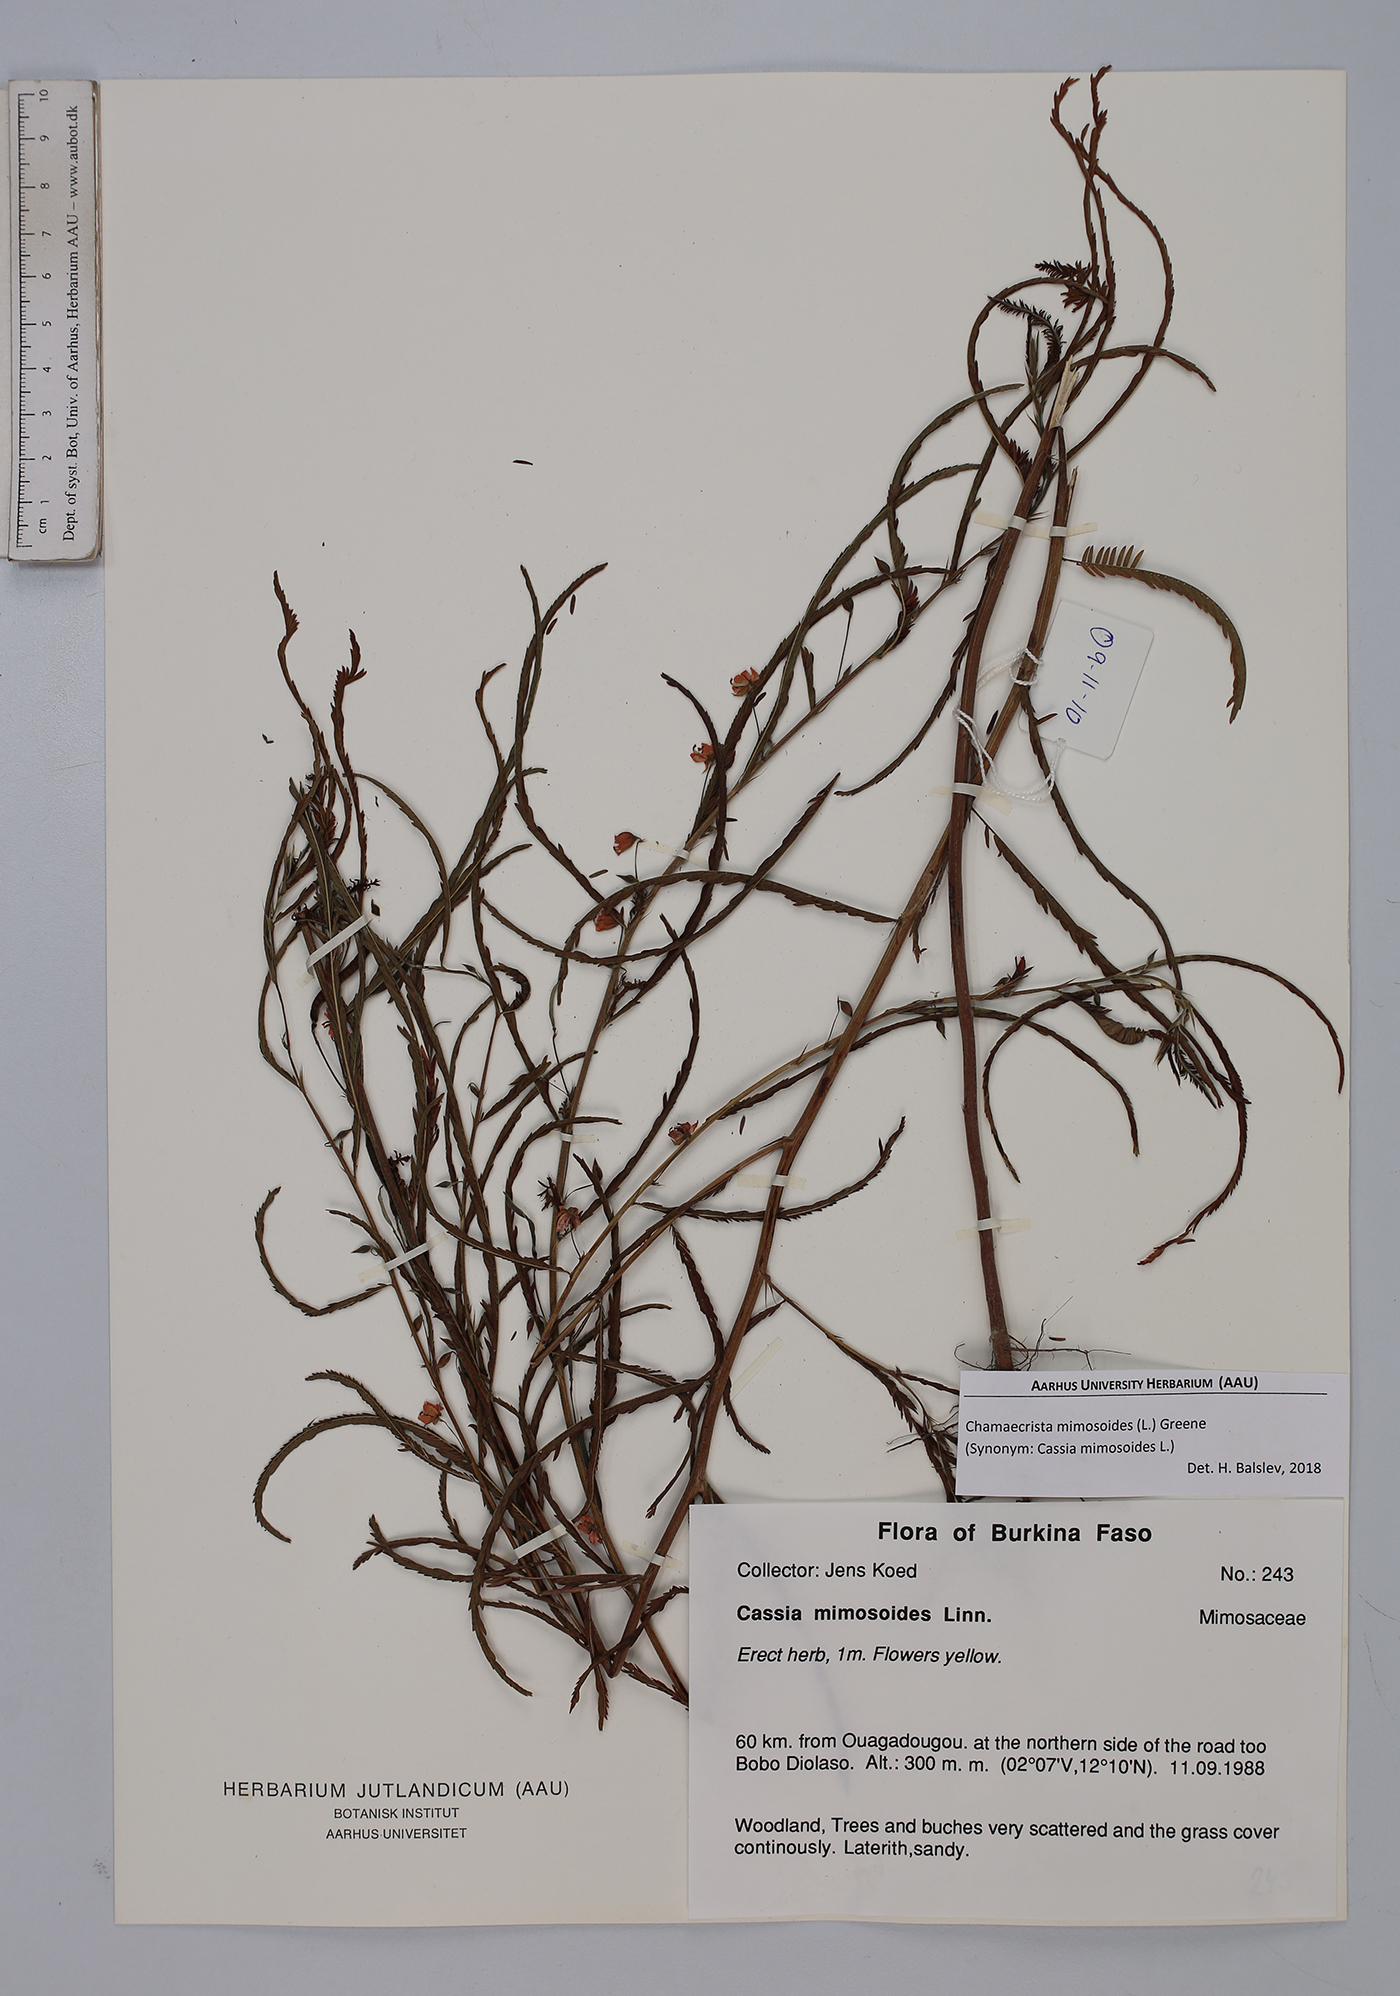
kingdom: Plantae
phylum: Tracheophyta
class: Magnoliopsida
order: Fabales
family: Fabaceae
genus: Chamaecrista
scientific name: Chamaecrista mimosoides
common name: Fish-bone cassia
